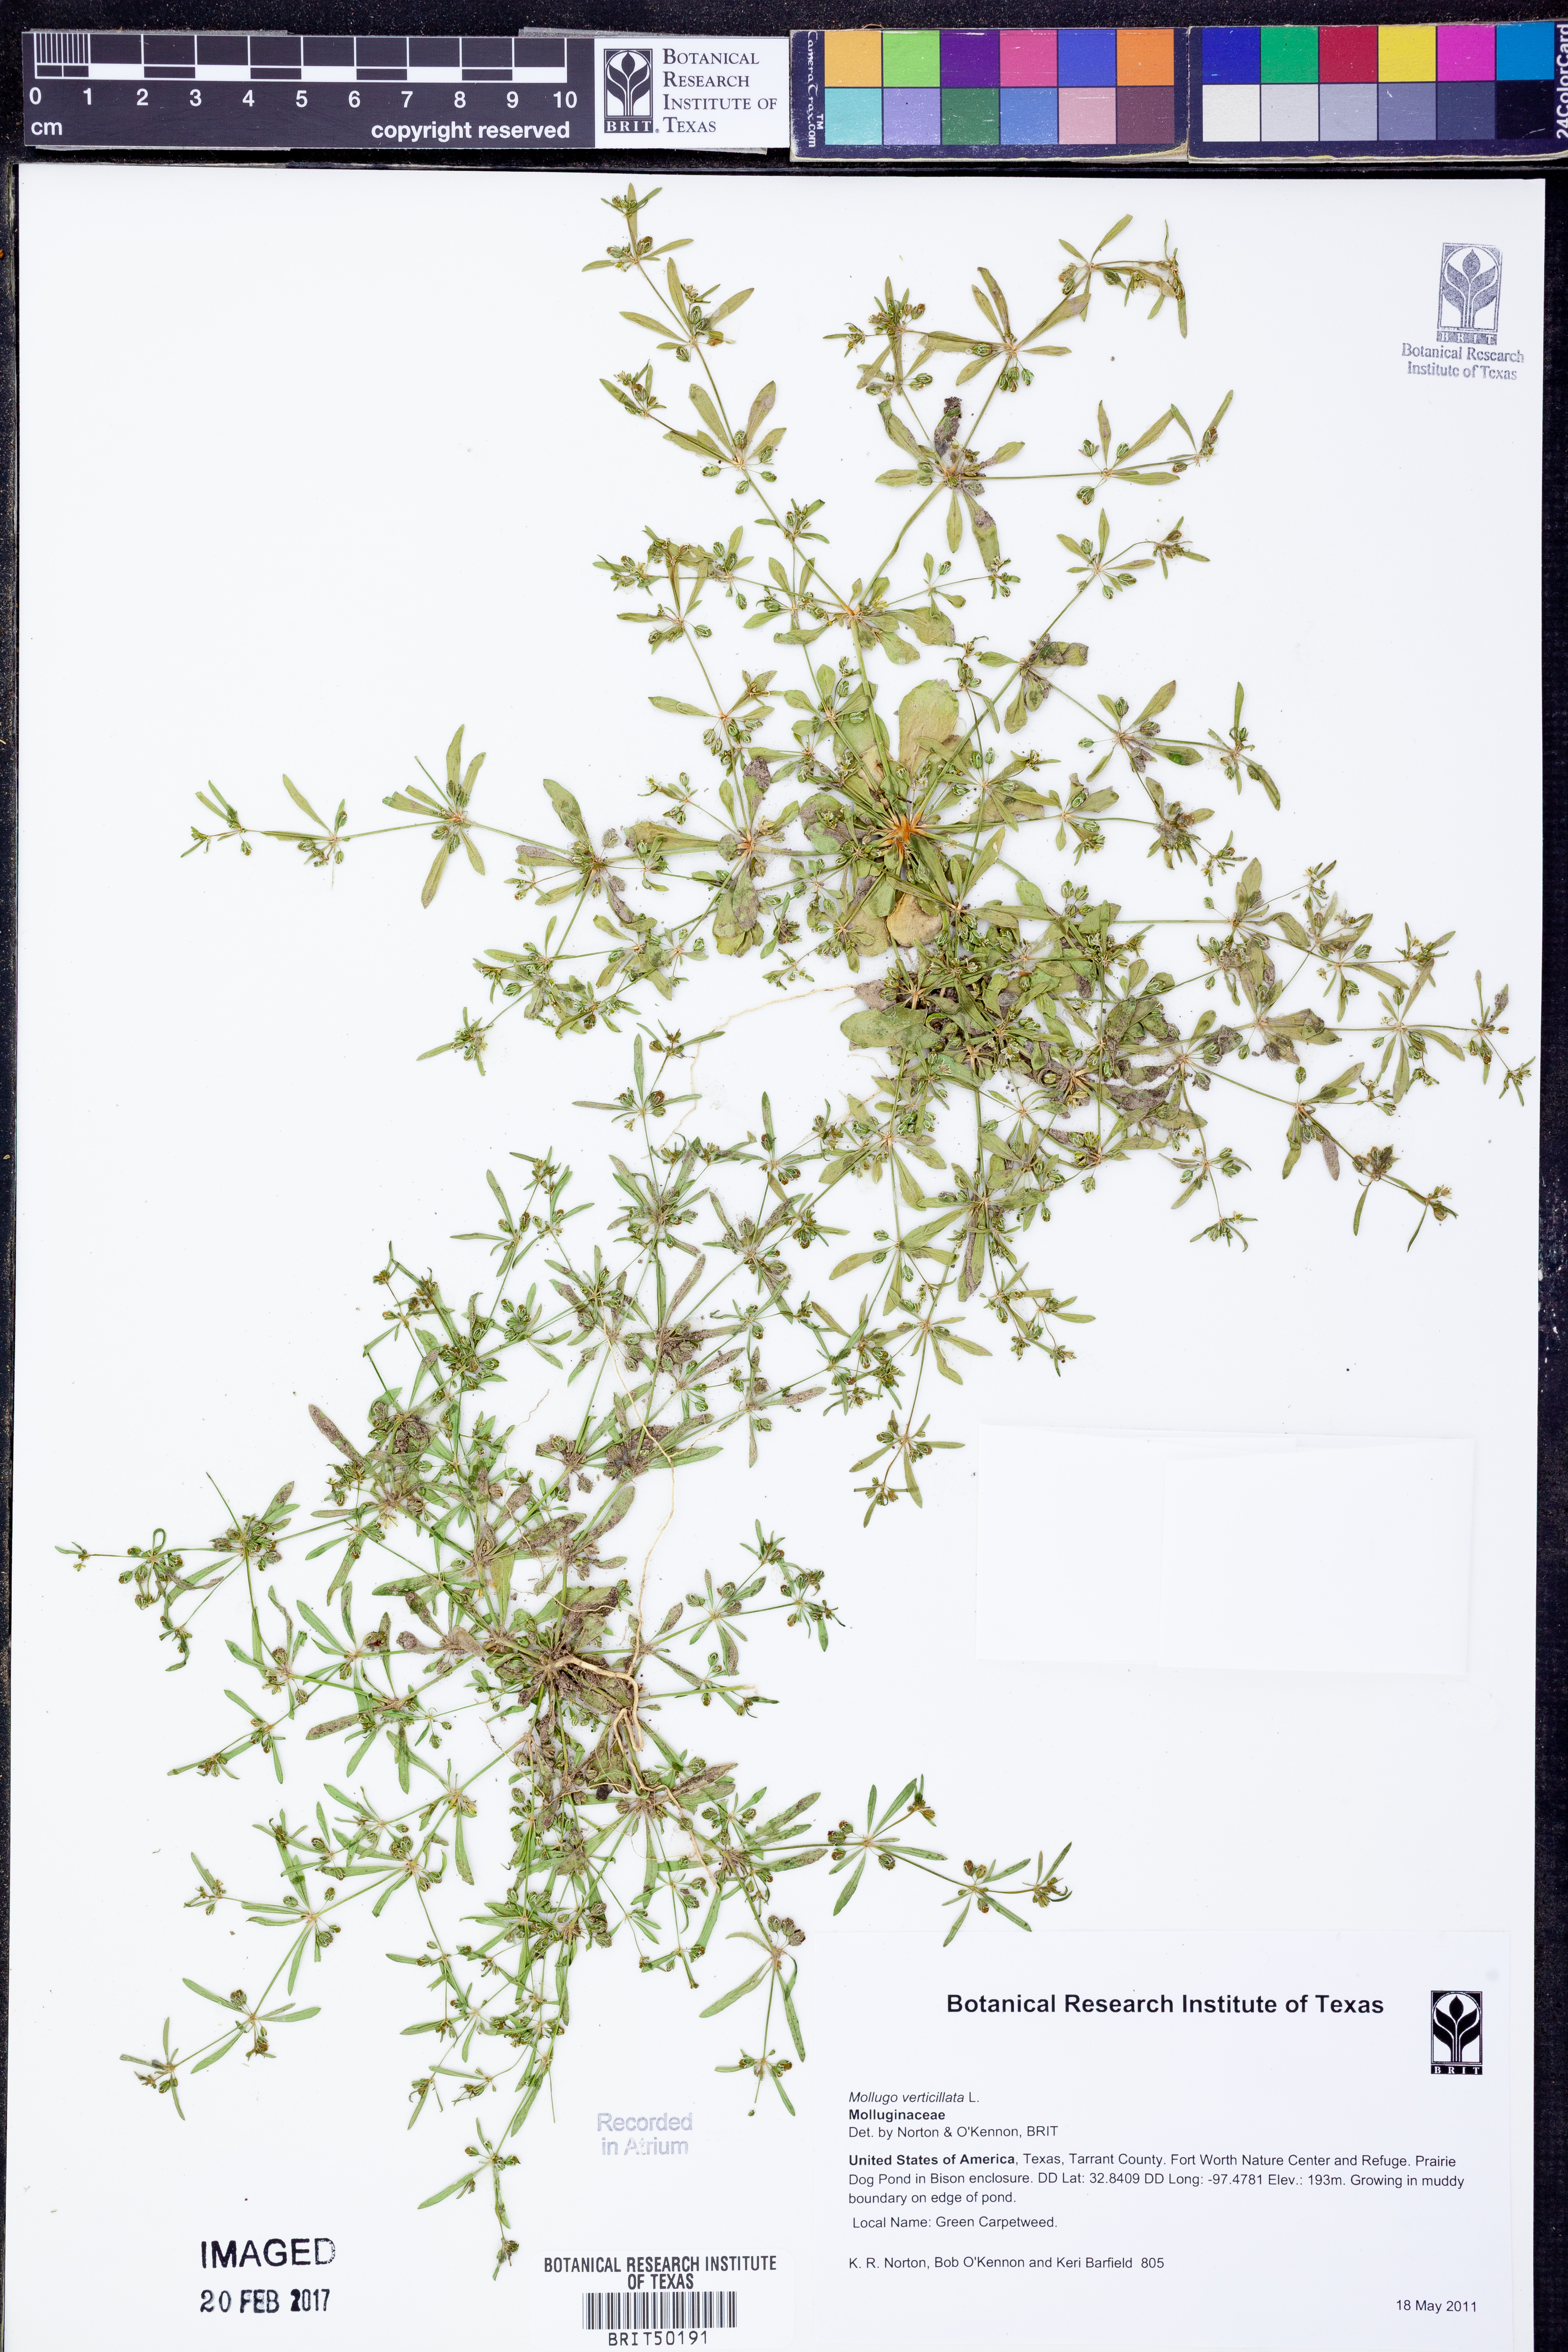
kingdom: Plantae
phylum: Tracheophyta
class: Magnoliopsida
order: Caryophyllales
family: Molluginaceae
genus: Mollugo
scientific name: Mollugo verticillata
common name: Green carpetweed
